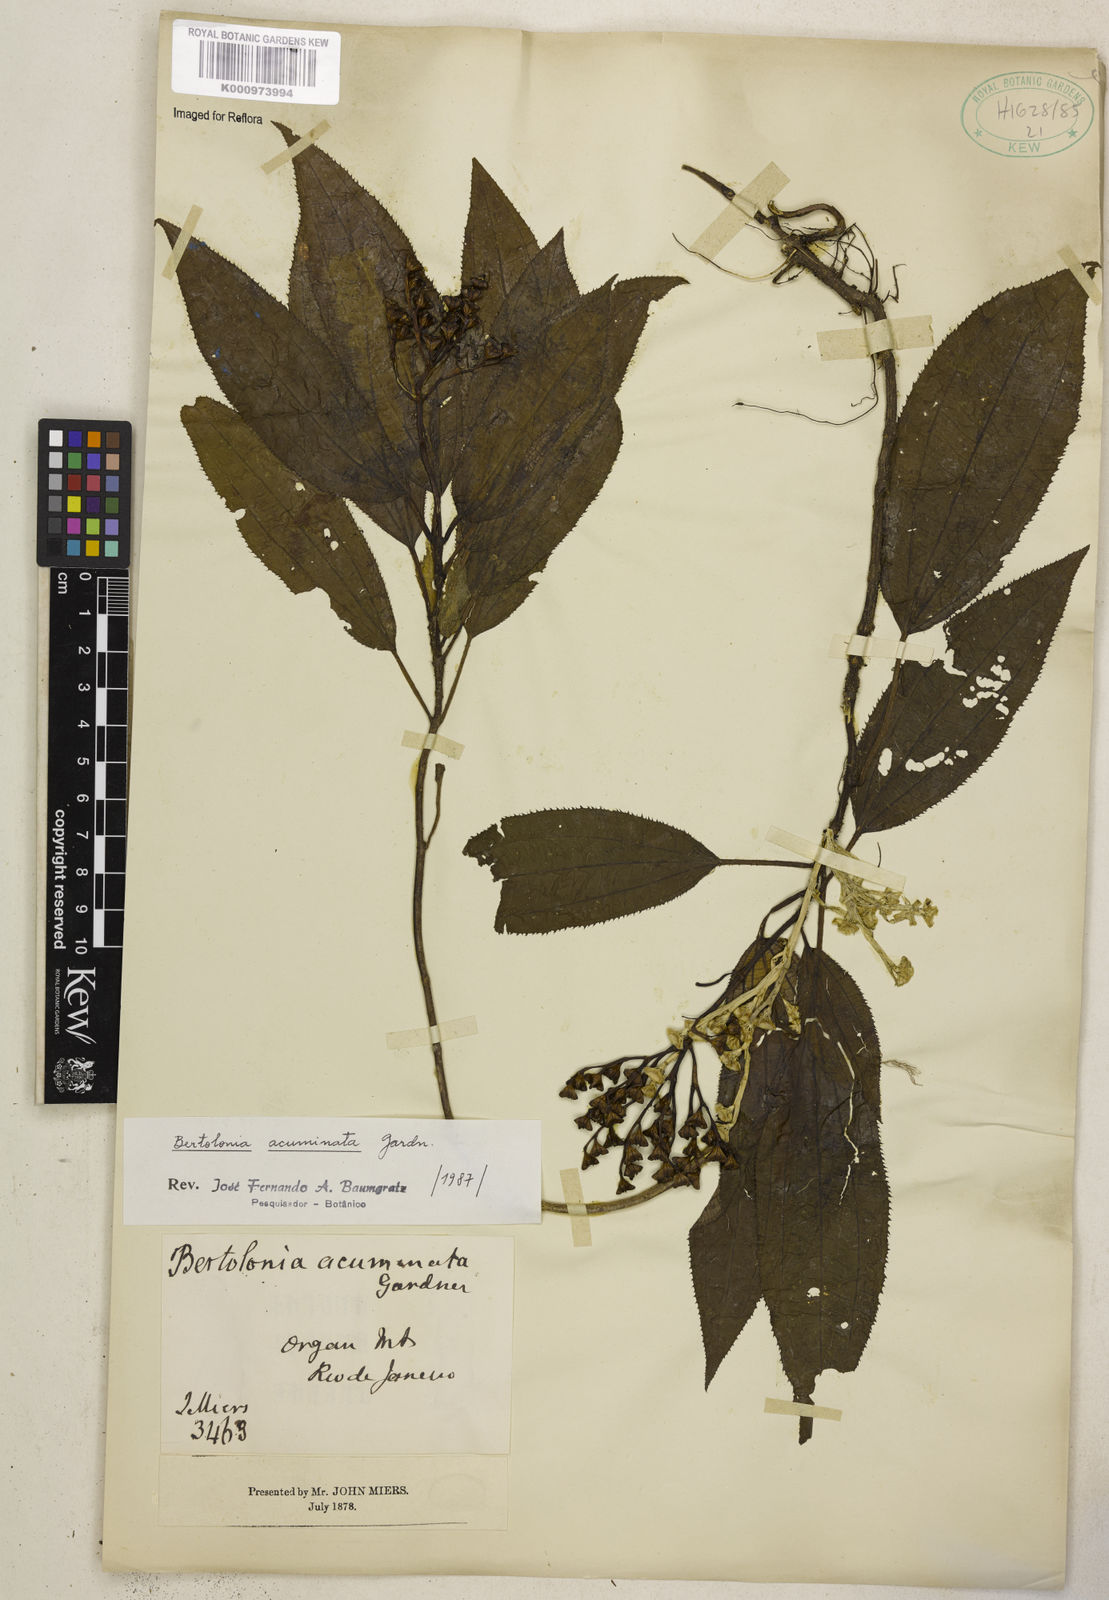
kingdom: Plantae
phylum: Tracheophyta
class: Magnoliopsida
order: Myrtales
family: Melastomataceae
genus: Bertolonia
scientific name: Bertolonia acuminata
